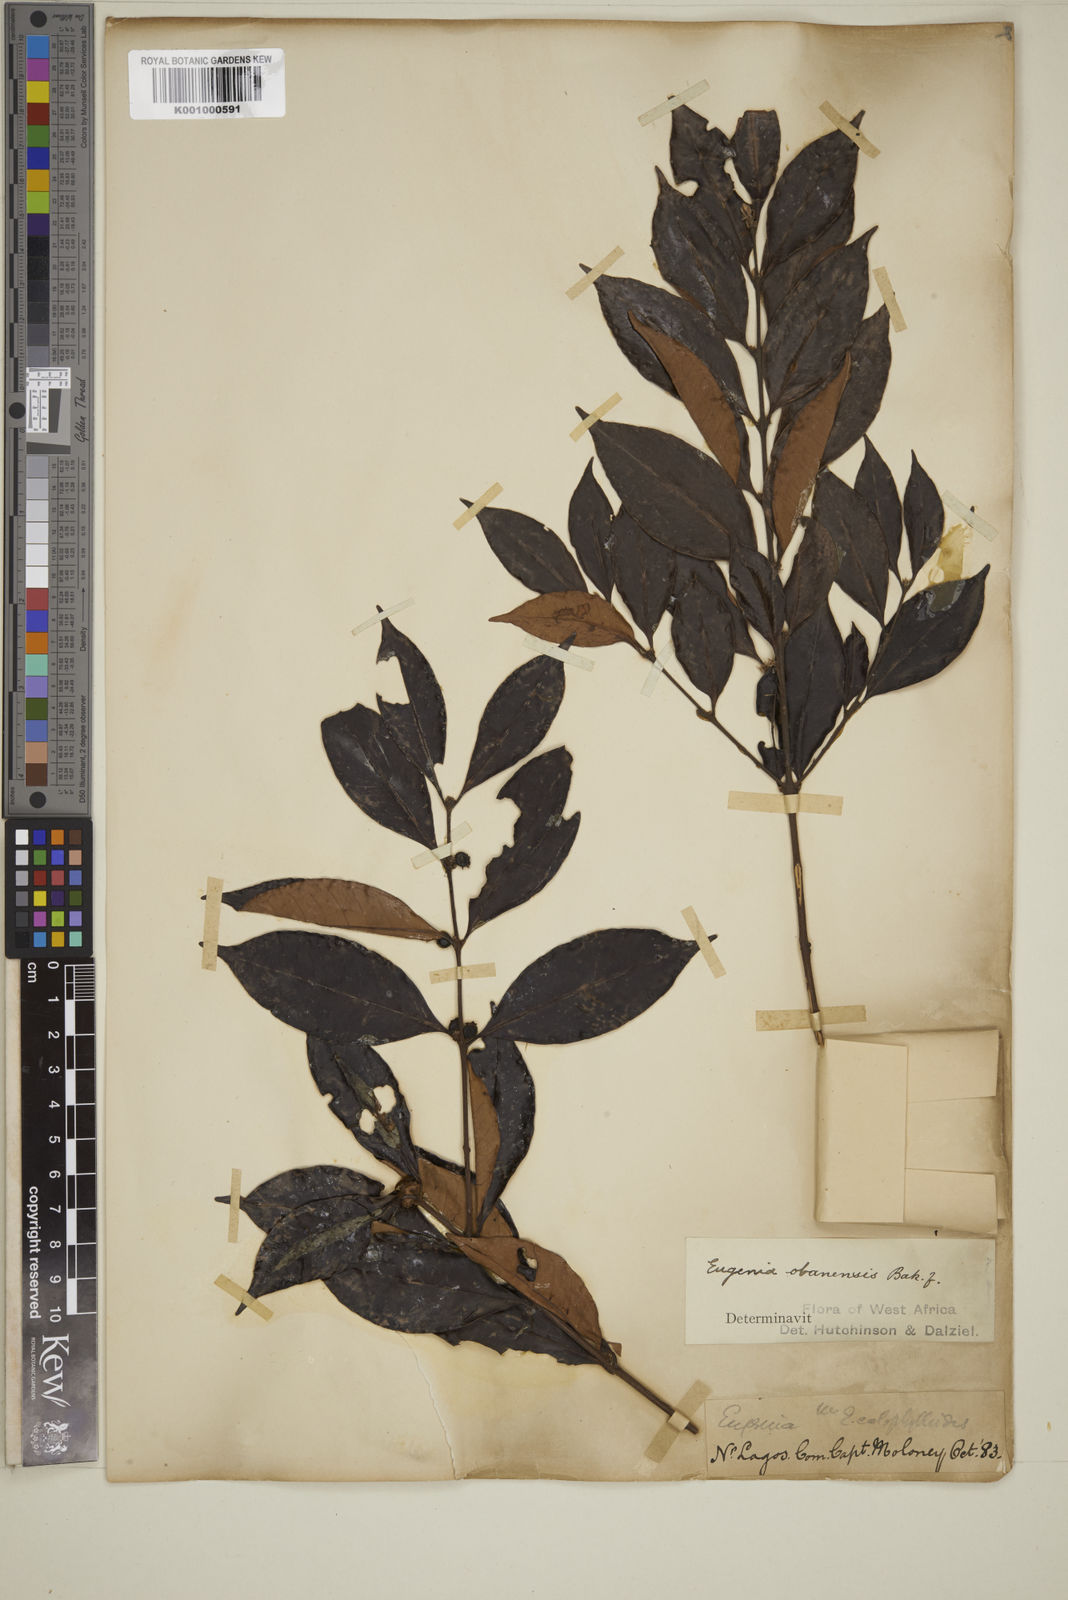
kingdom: Plantae
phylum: Tracheophyta
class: Magnoliopsida
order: Myrtales
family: Myrtaceae
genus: Eugenia
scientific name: Eugenia obanensis
